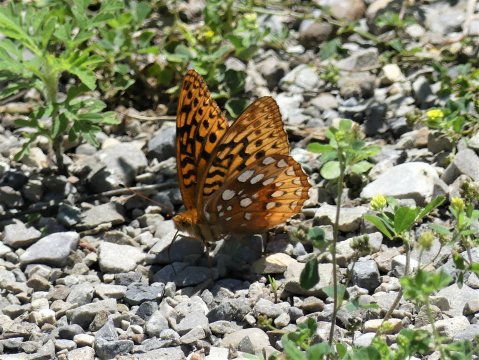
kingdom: Animalia
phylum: Arthropoda
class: Insecta
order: Lepidoptera
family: Nymphalidae
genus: Speyeria
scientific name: Speyeria cybele
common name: Great Spangled Fritillary
